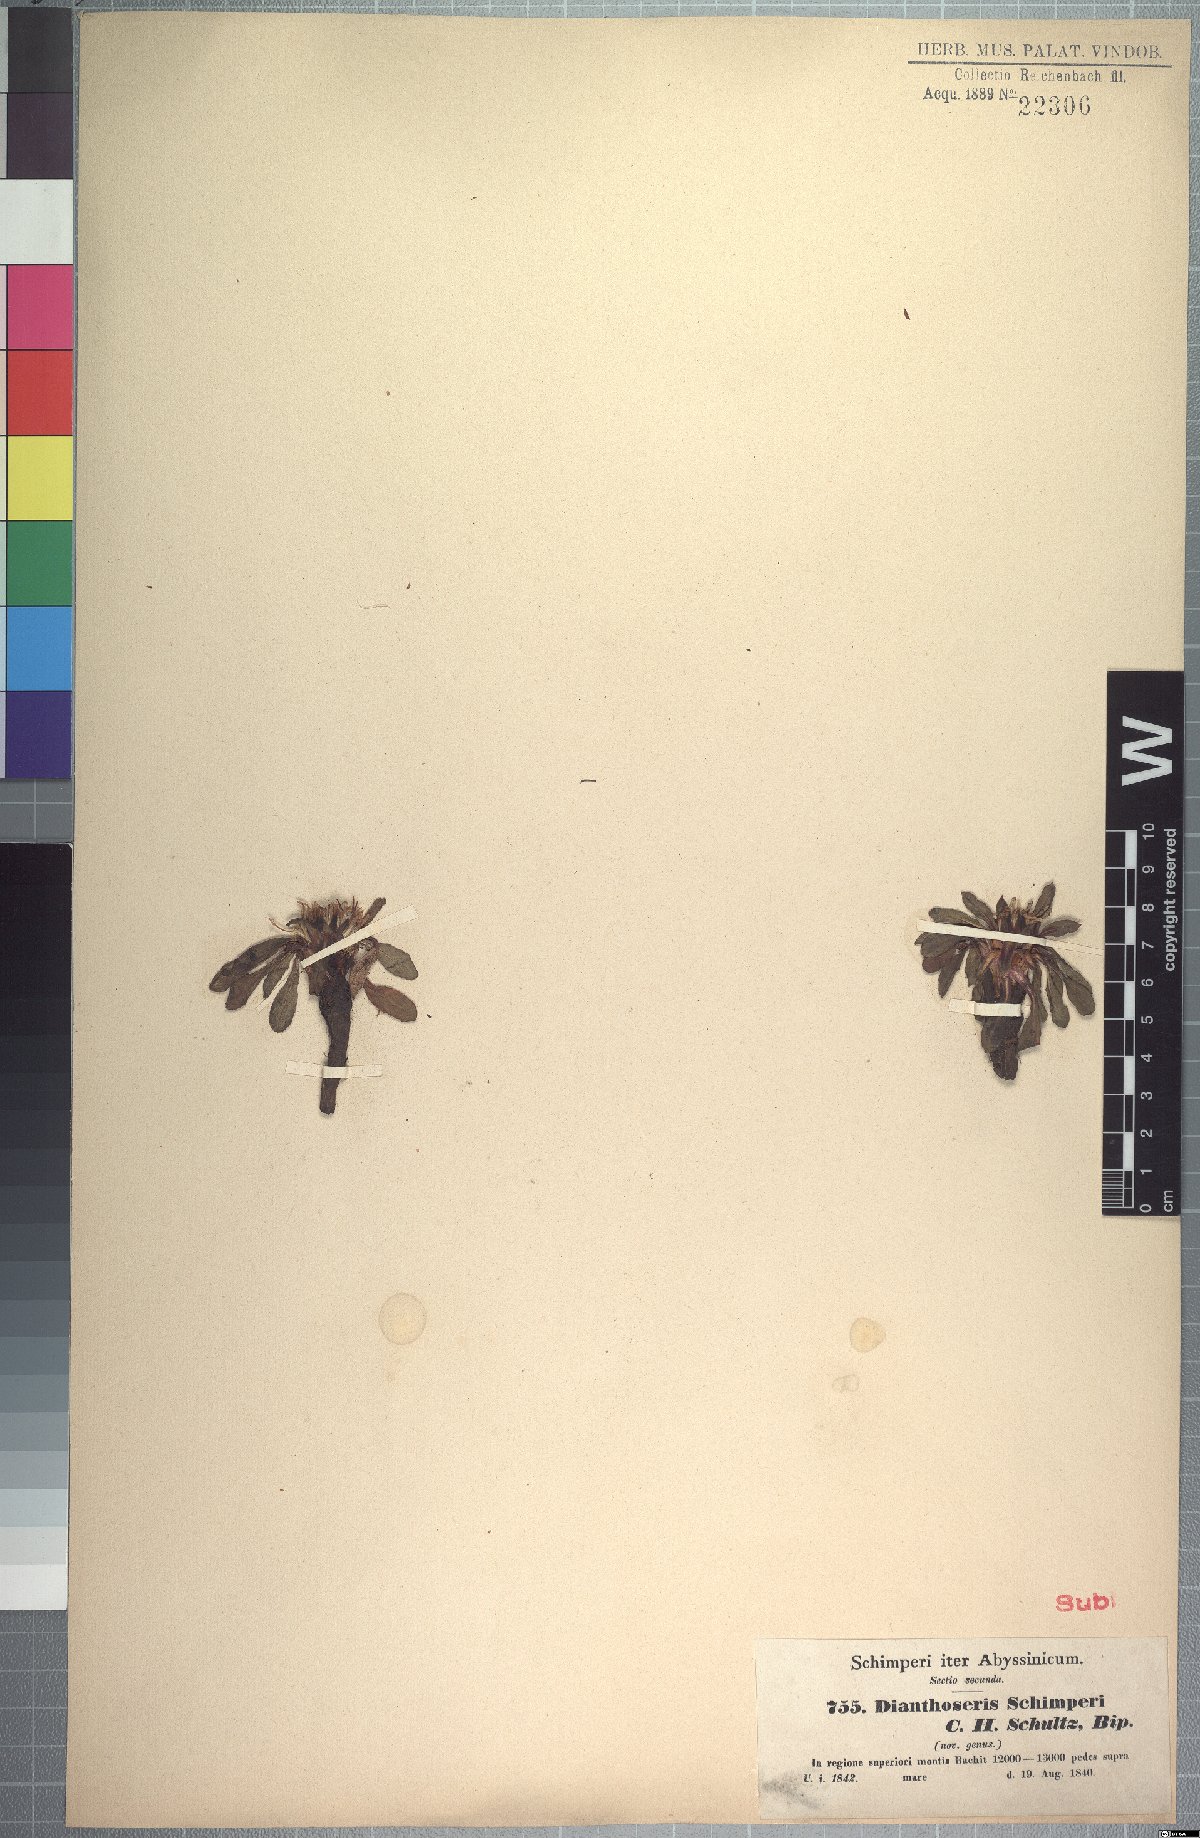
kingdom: Plantae
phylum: Tracheophyta
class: Magnoliopsida
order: Asterales
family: Asteraceae
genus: Crepis
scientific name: Crepis dianthoseris
